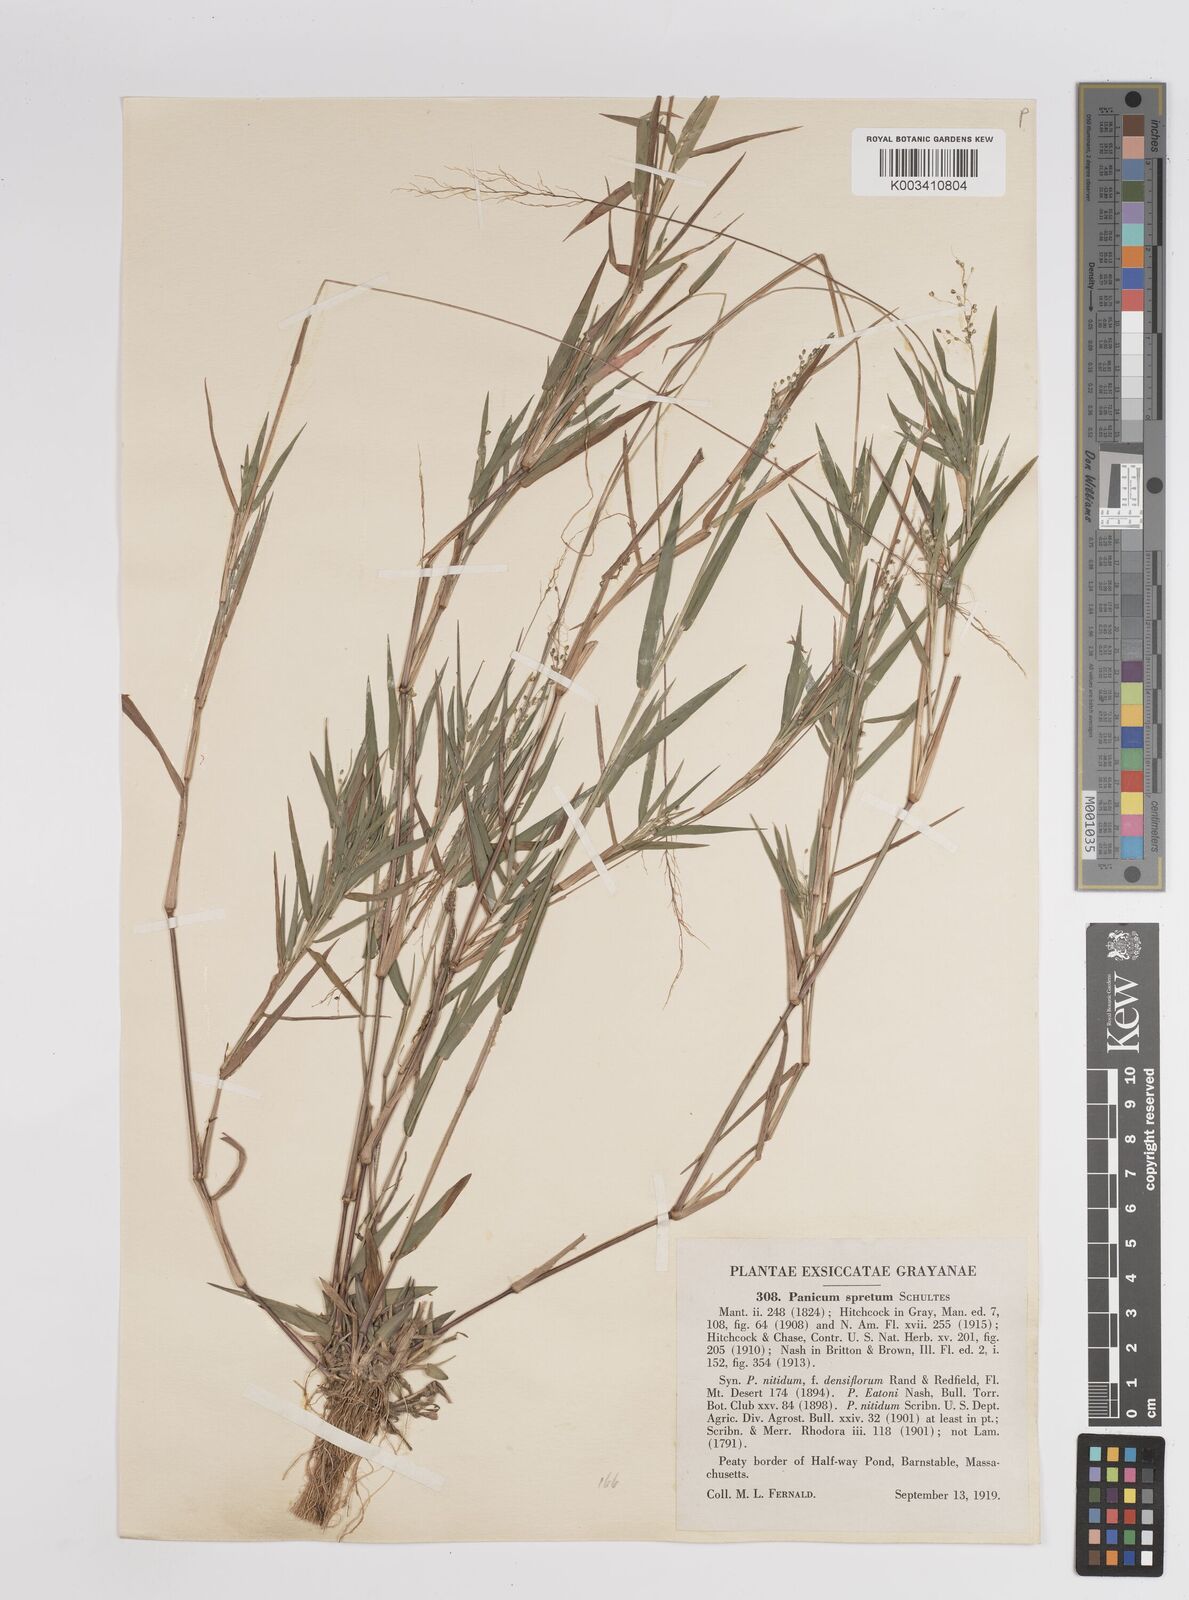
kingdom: Plantae
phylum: Tracheophyta
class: Liliopsida
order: Poales
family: Poaceae
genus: Dichanthelium
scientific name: Dichanthelium acuminatum
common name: Hairy panic grass
